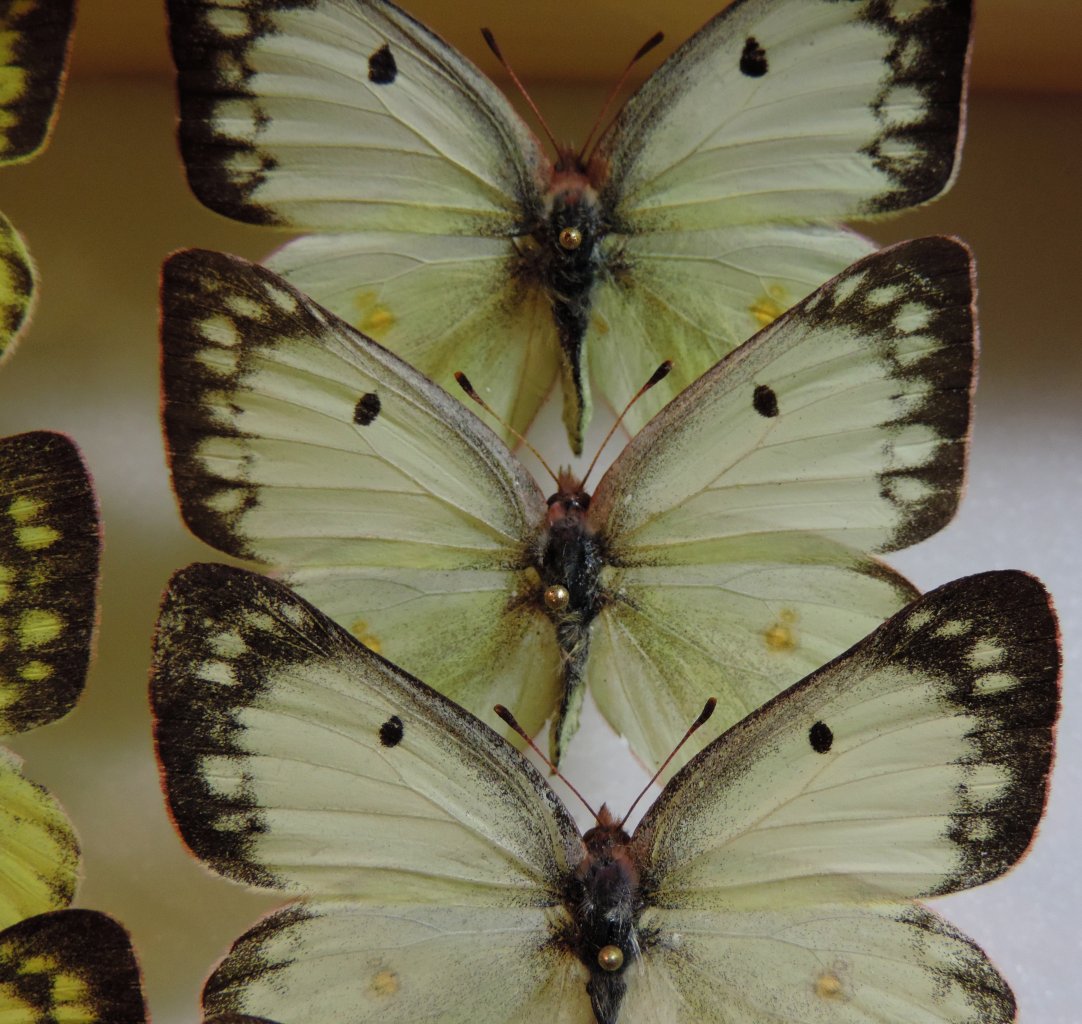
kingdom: Animalia
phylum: Arthropoda
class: Insecta
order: Lepidoptera
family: Pieridae
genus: Colias
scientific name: Colias philodice
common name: Clouded Sulphur
